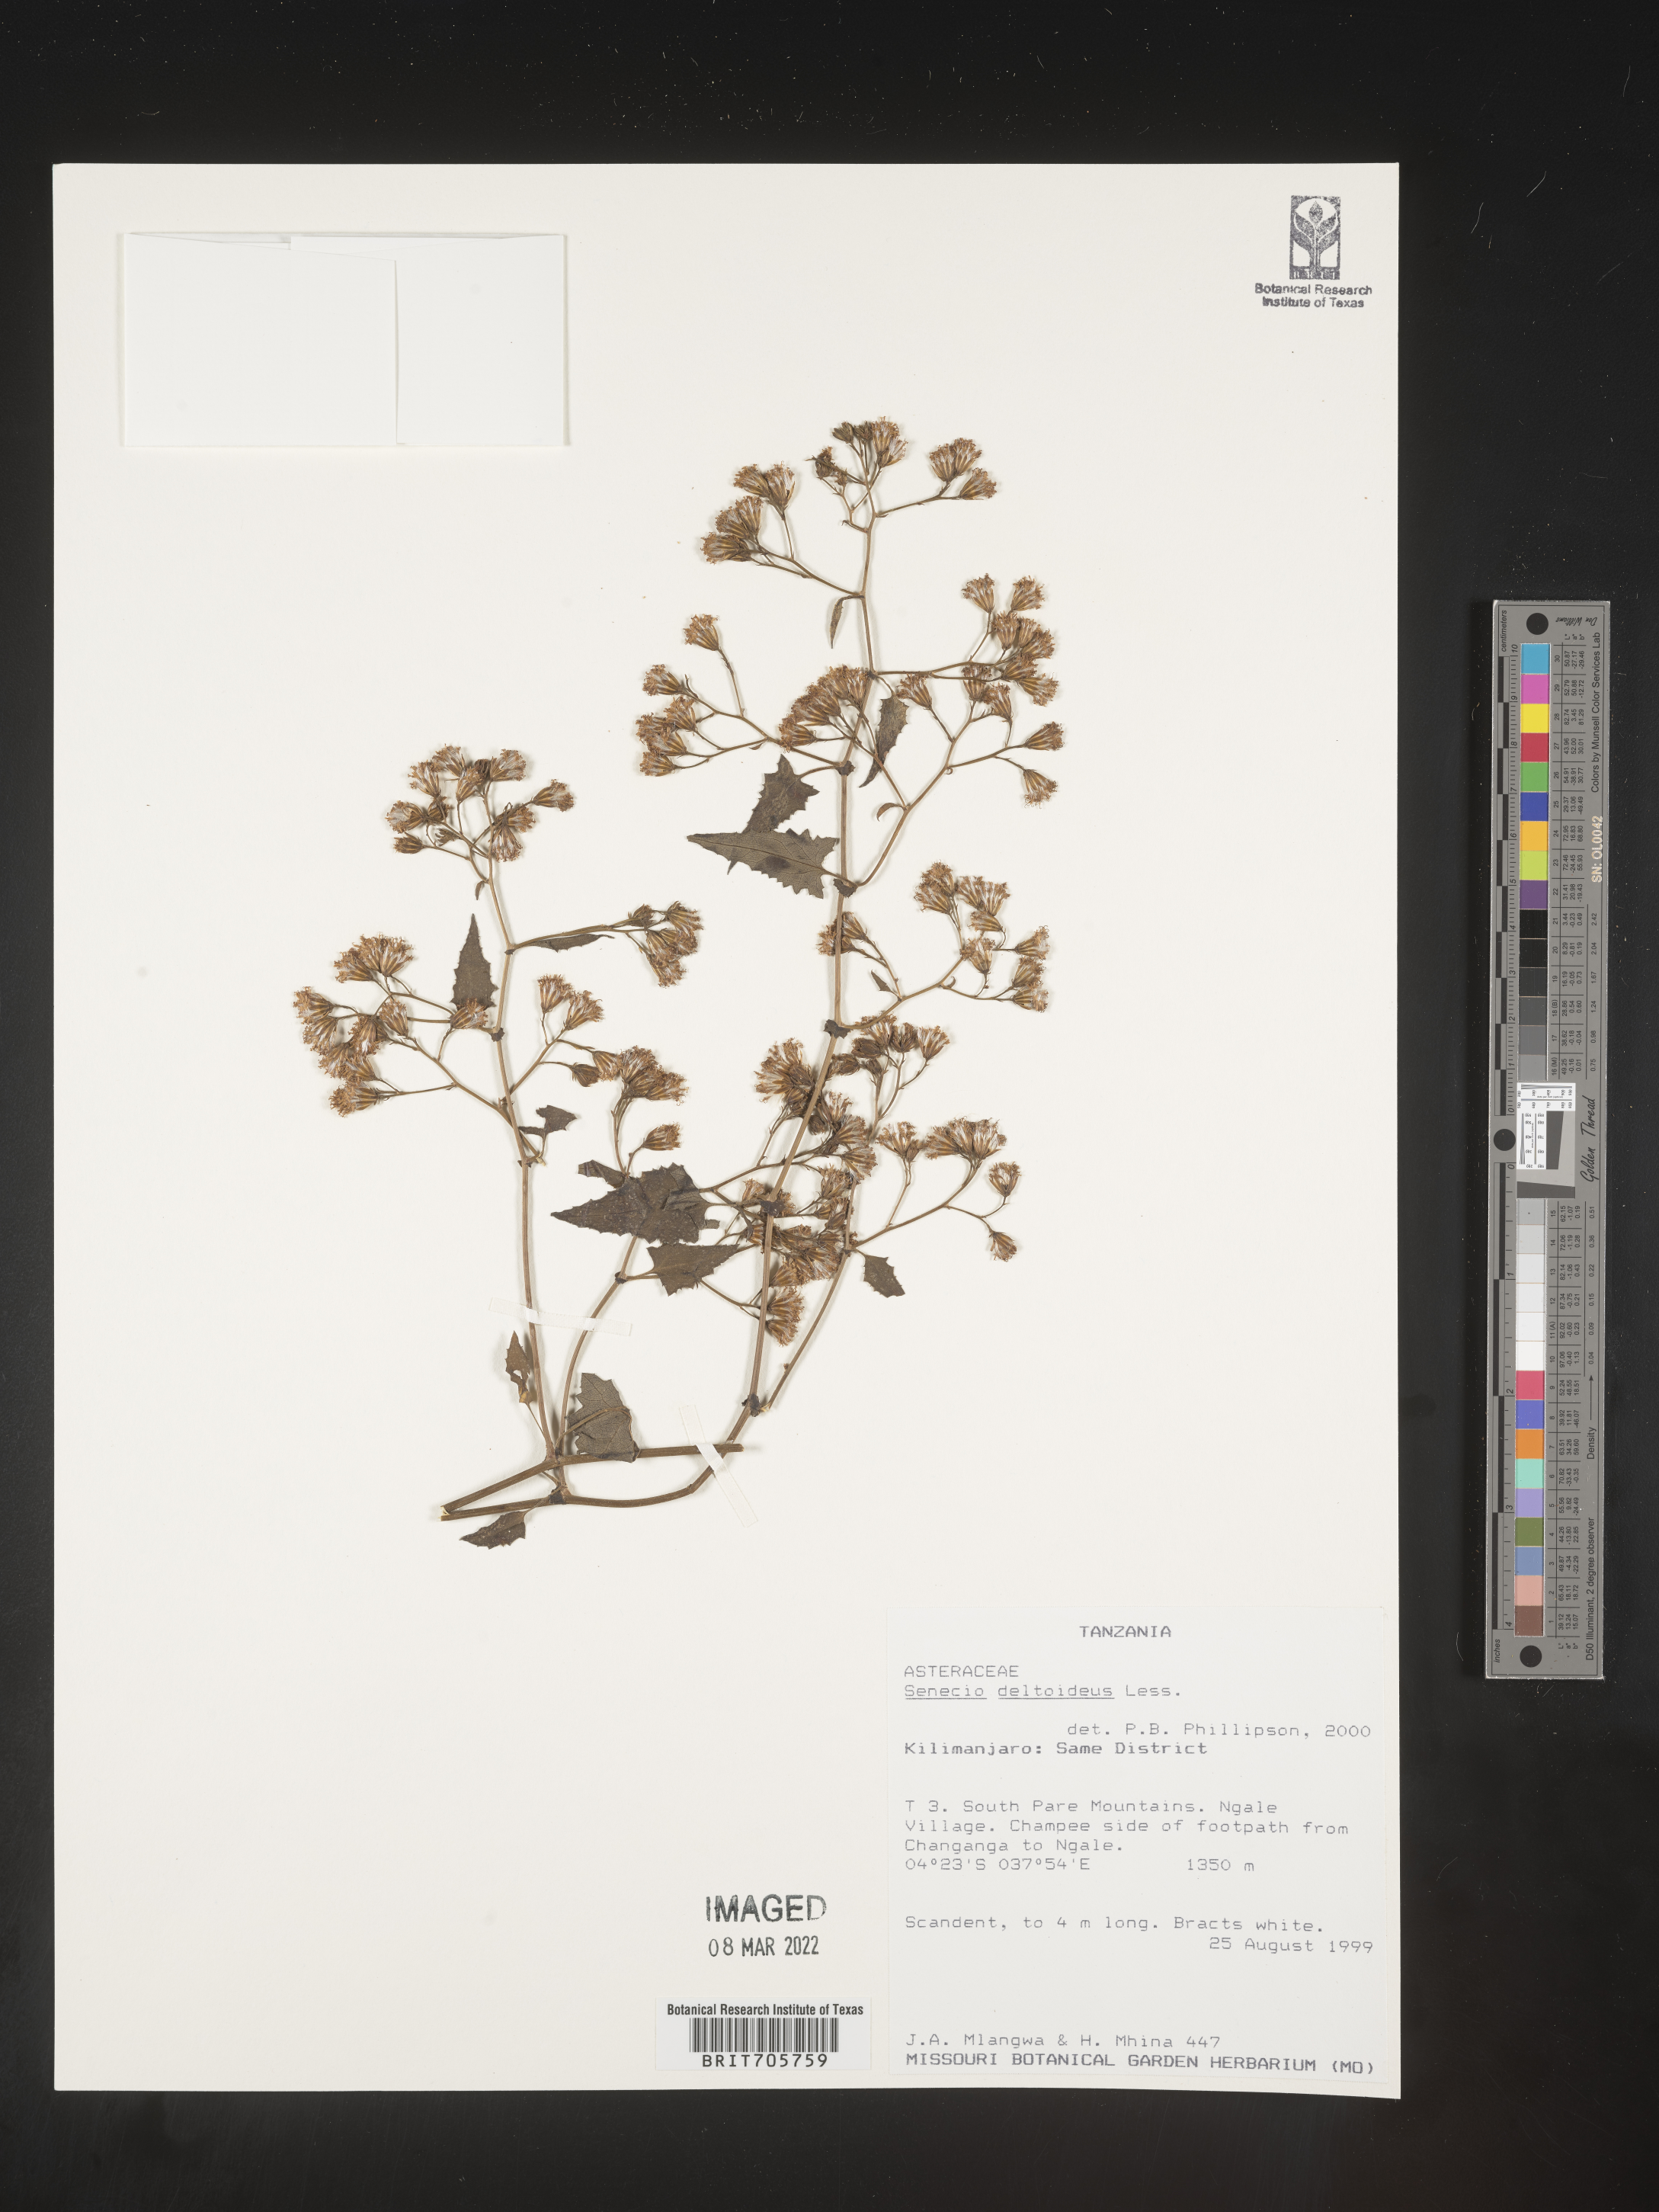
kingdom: Plantae
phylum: Tracheophyta
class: Magnoliopsida
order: Asterales
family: Asteraceae
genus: Senecio
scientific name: Senecio
